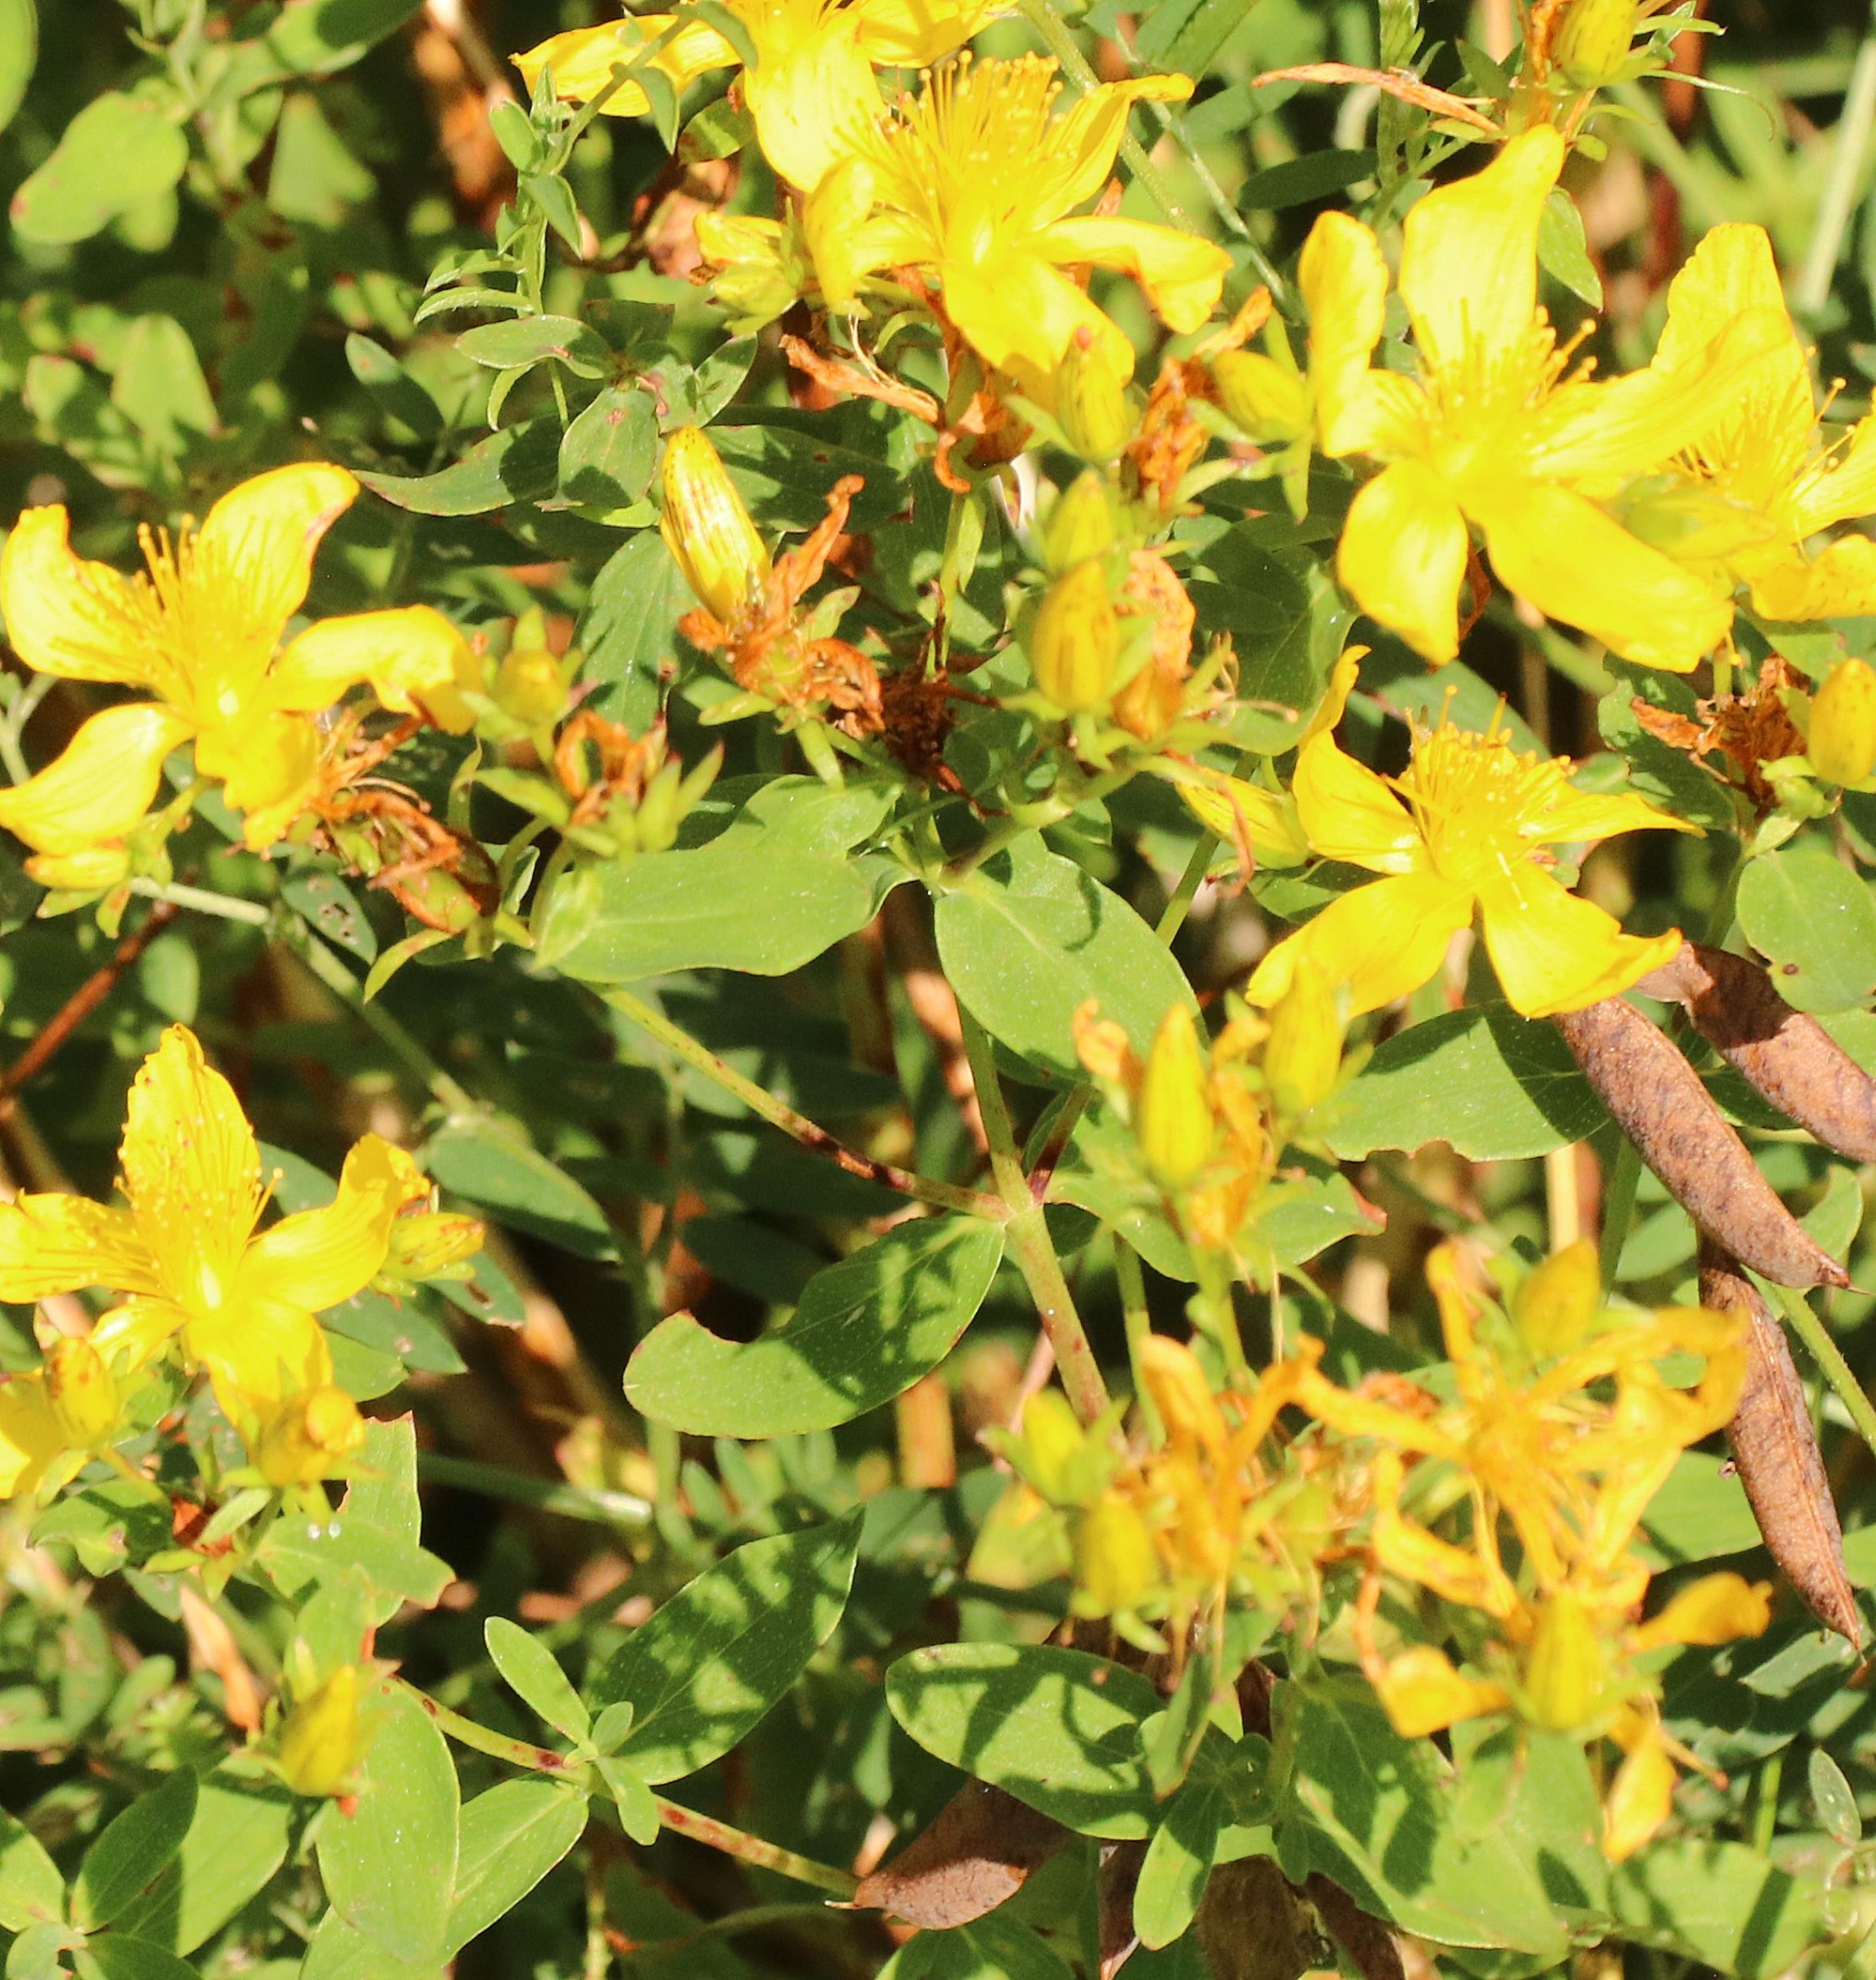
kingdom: Plantae
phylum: Tracheophyta
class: Magnoliopsida
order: Malpighiales
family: Hypericaceae
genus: Hypericum
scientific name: Hypericum perforatum
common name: Prikbladet perikon
